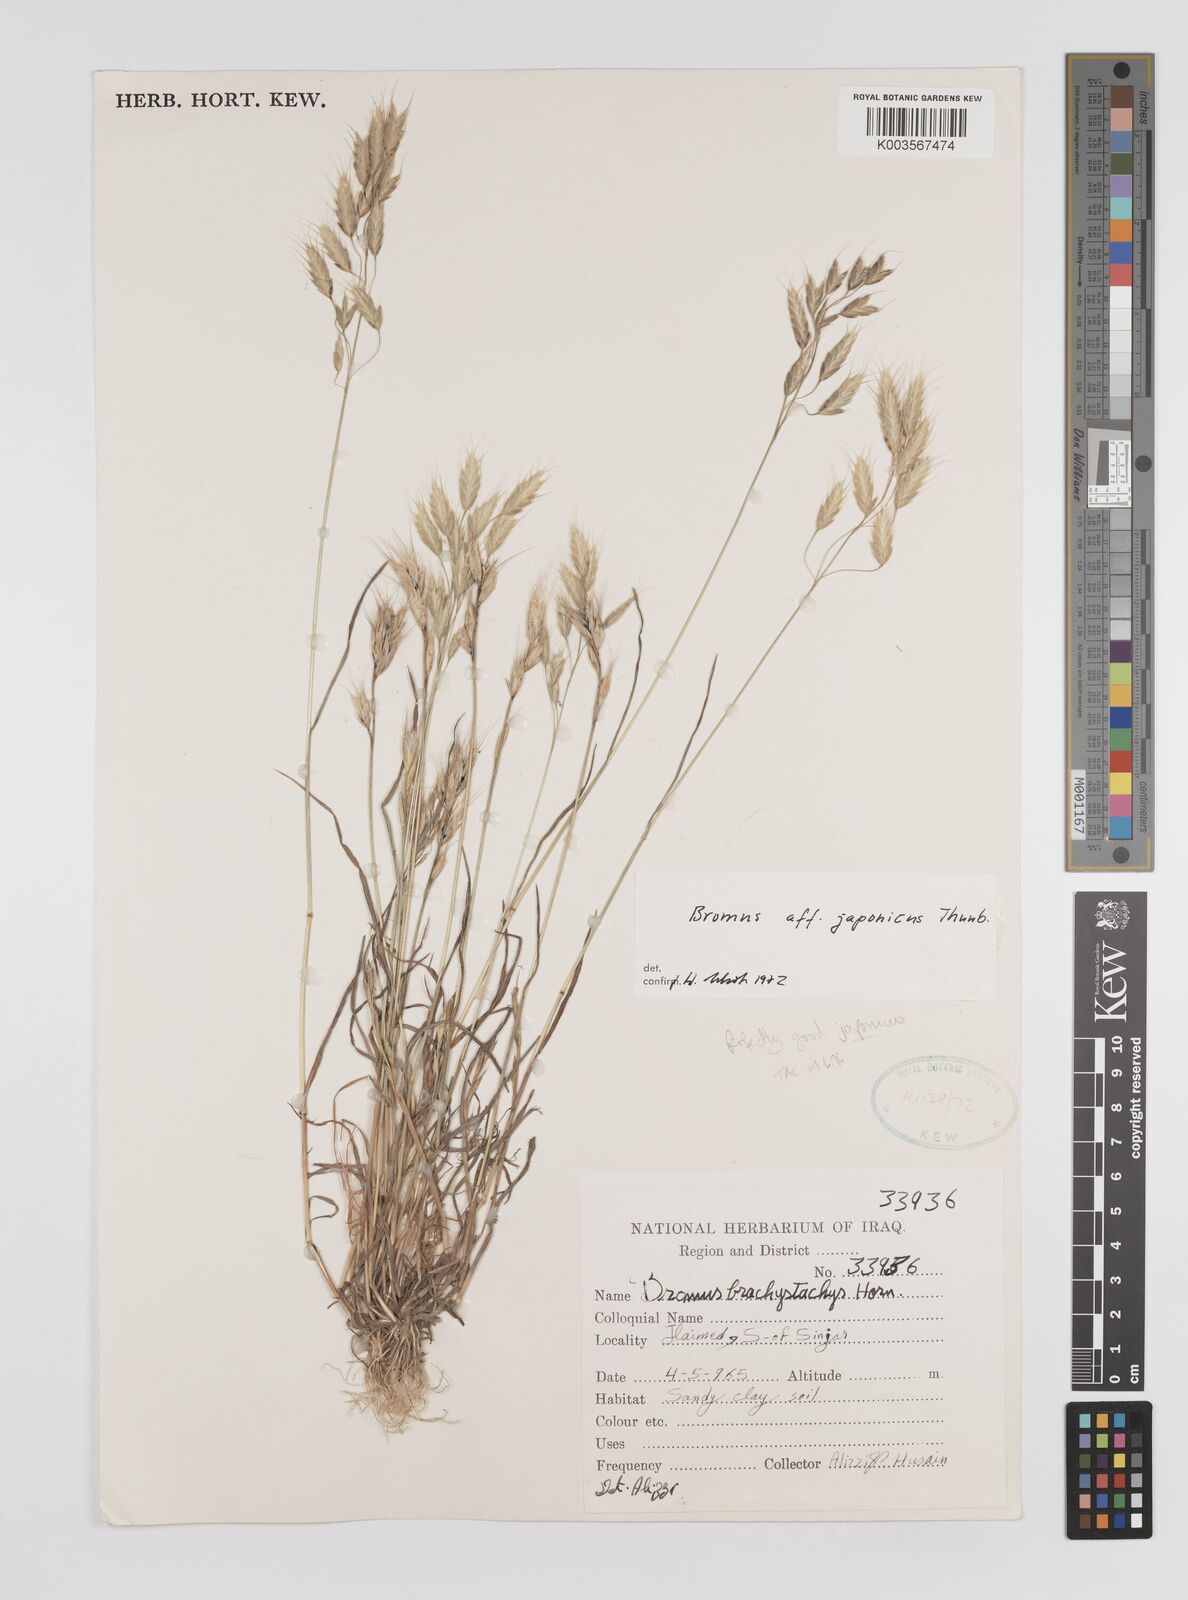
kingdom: Plantae
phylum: Tracheophyta
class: Liliopsida
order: Poales
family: Poaceae
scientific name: Poaceae
